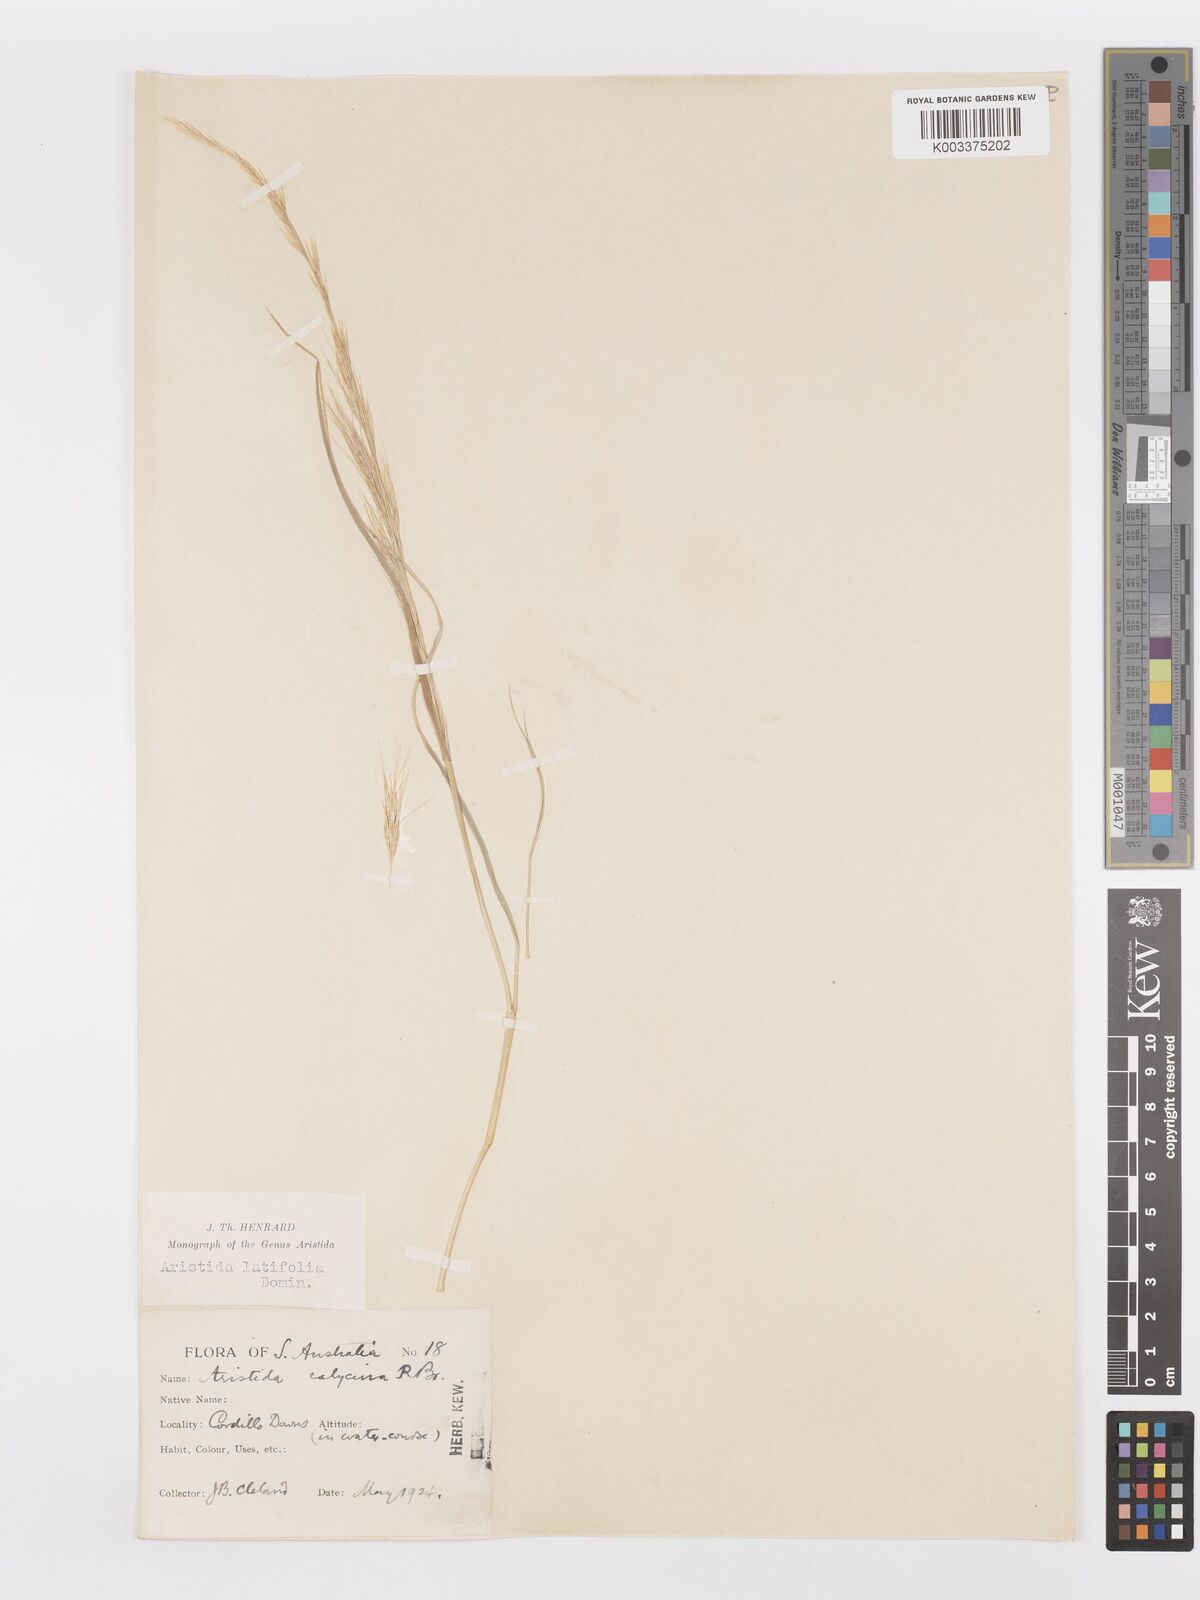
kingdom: Plantae
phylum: Tracheophyta
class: Liliopsida
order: Poales
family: Poaceae
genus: Aristida
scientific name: Aristida latifolia
